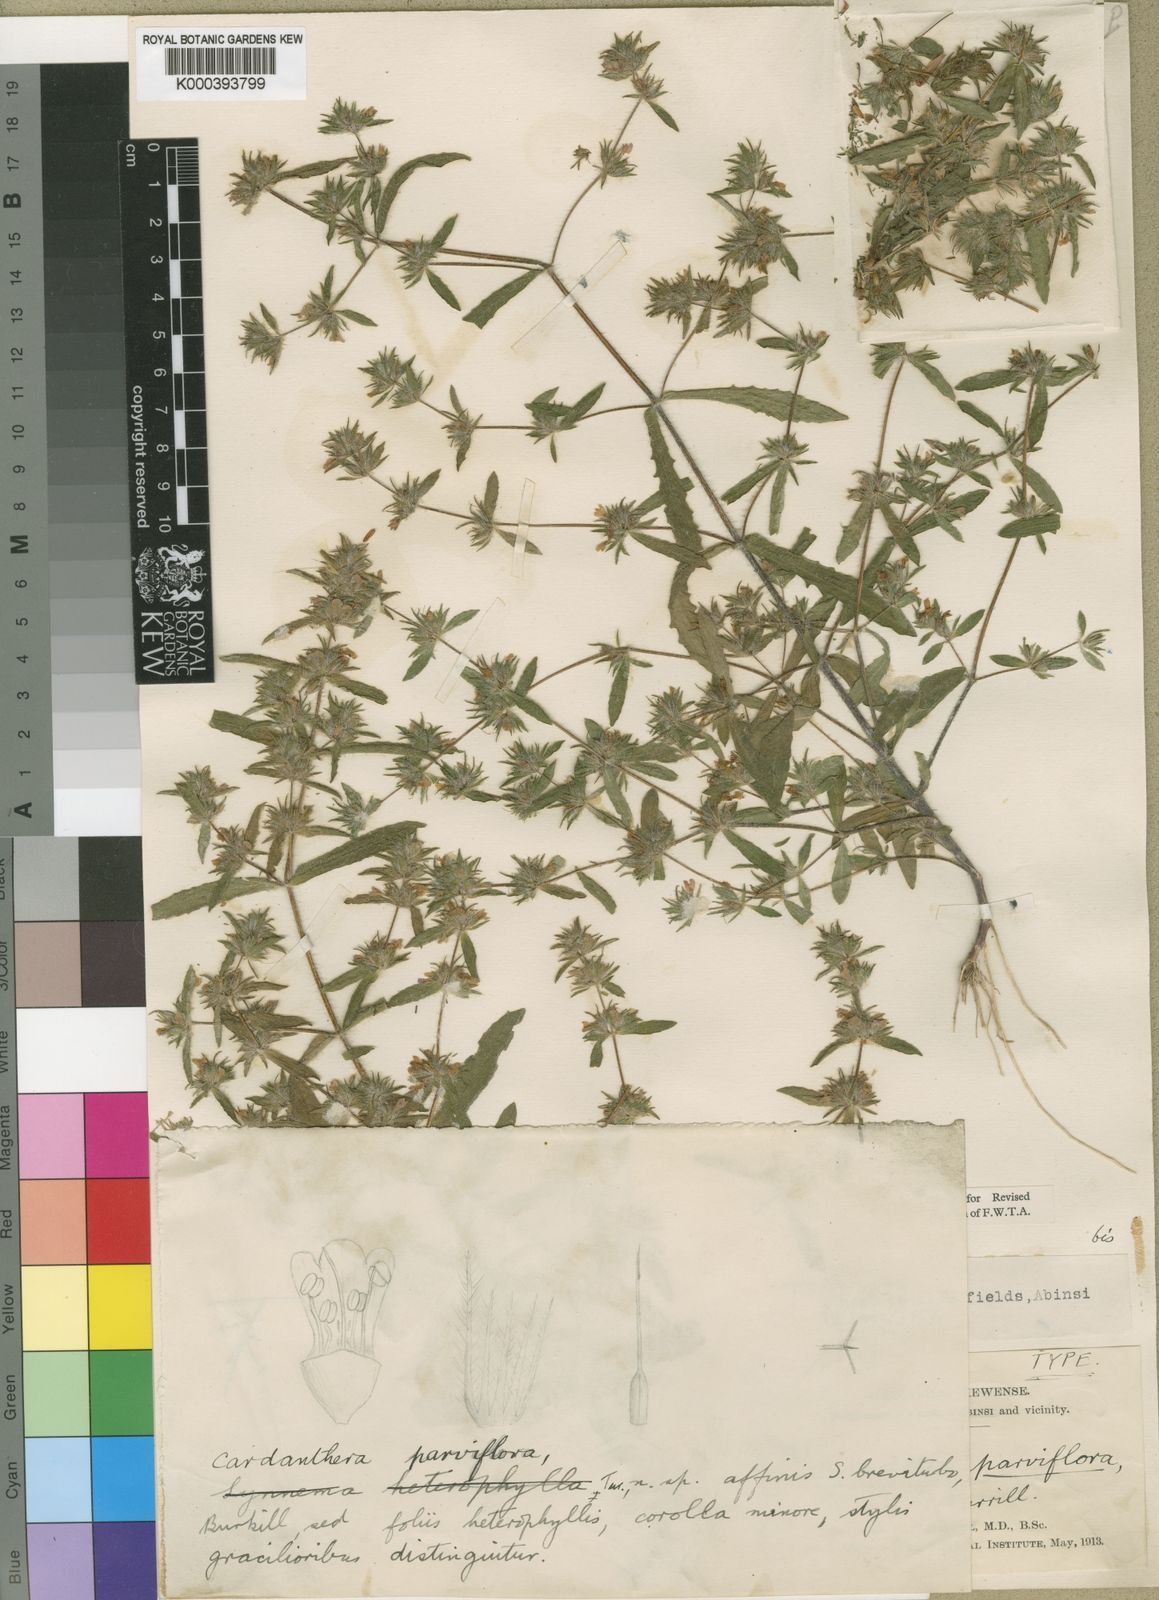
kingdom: Plantae
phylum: Tracheophyta
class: Magnoliopsida
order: Lamiales
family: Acanthaceae
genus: Hygrophila
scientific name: Hygrophila brevituba
